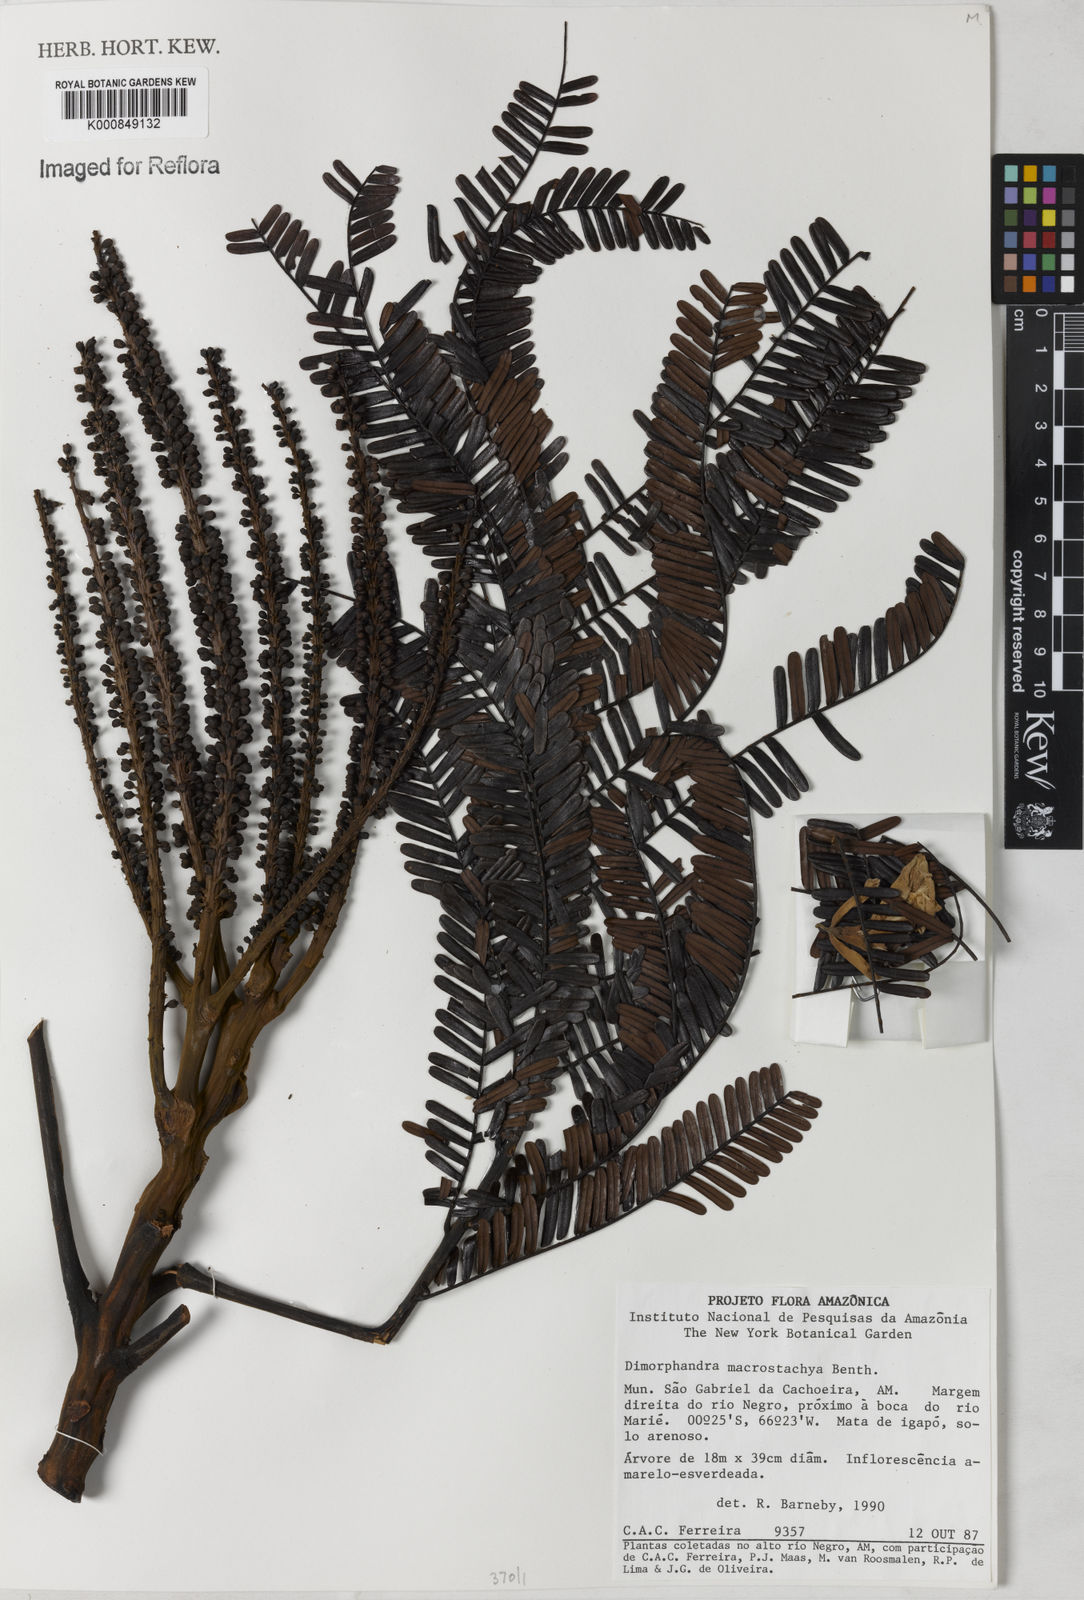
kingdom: Plantae
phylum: Tracheophyta
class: Magnoliopsida
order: Fabales
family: Fabaceae
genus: Dimorphandra
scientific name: Dimorphandra macrostachya
